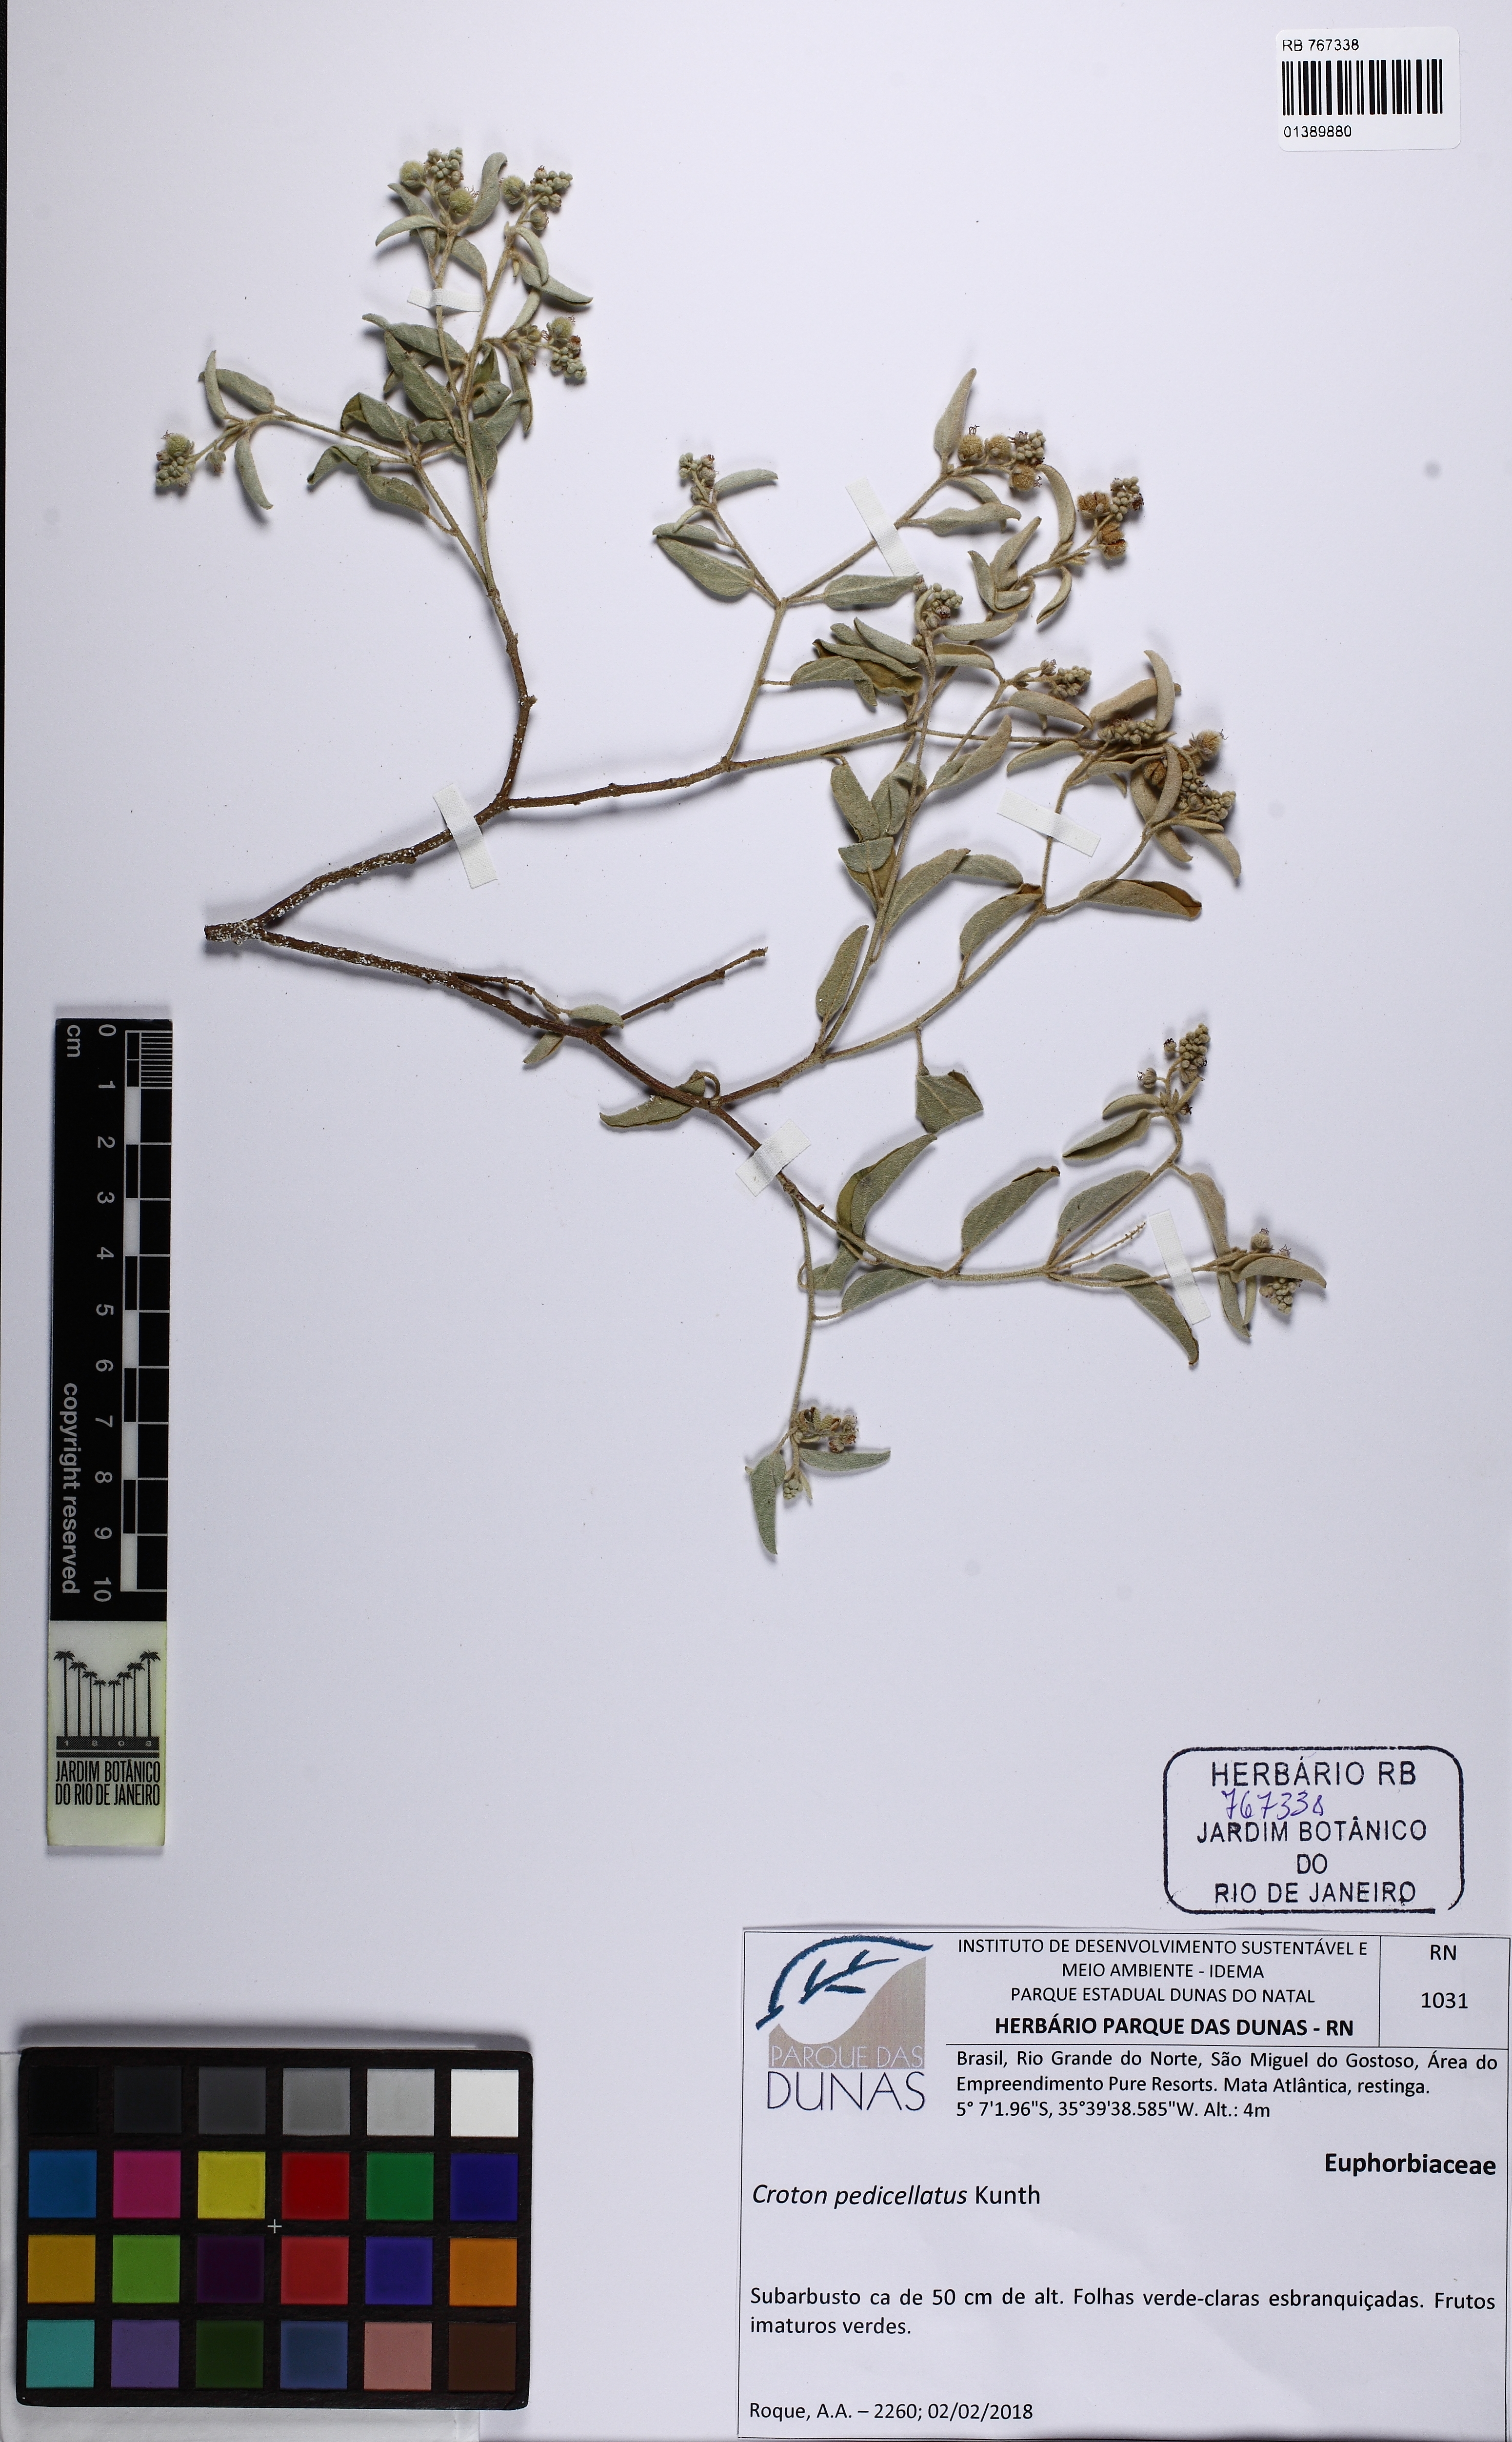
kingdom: Plantae
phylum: Tracheophyta
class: Magnoliopsida
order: Malpighiales
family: Euphorbiaceae
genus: Croton
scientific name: Croton pedicellatus
